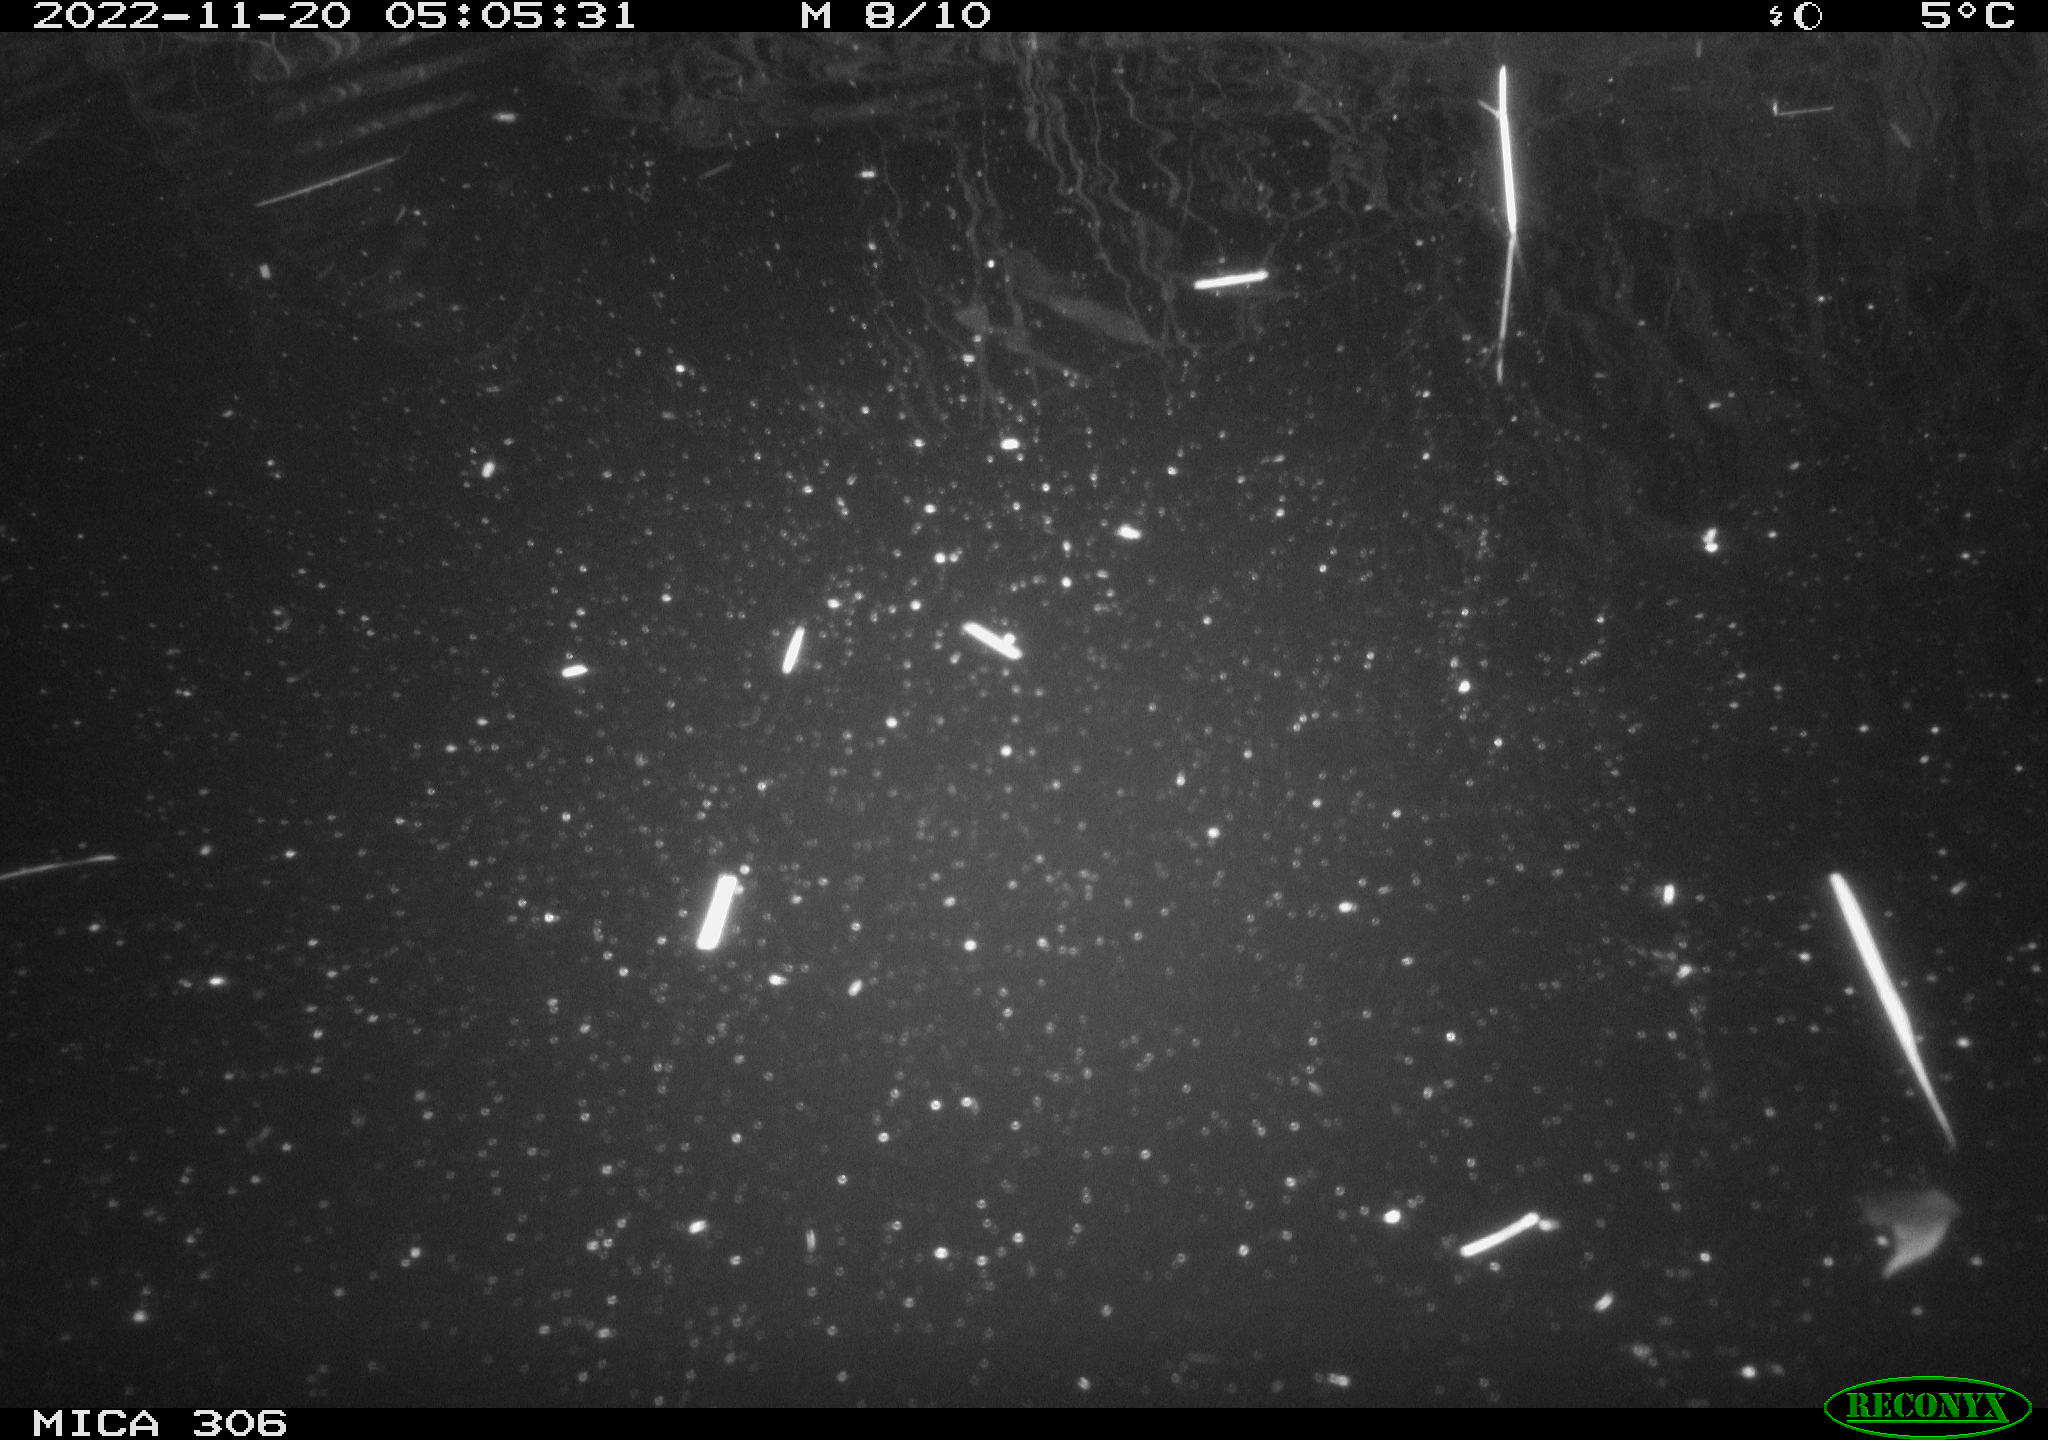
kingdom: Animalia
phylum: Chordata
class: Mammalia
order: Rodentia
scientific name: Rodentia
